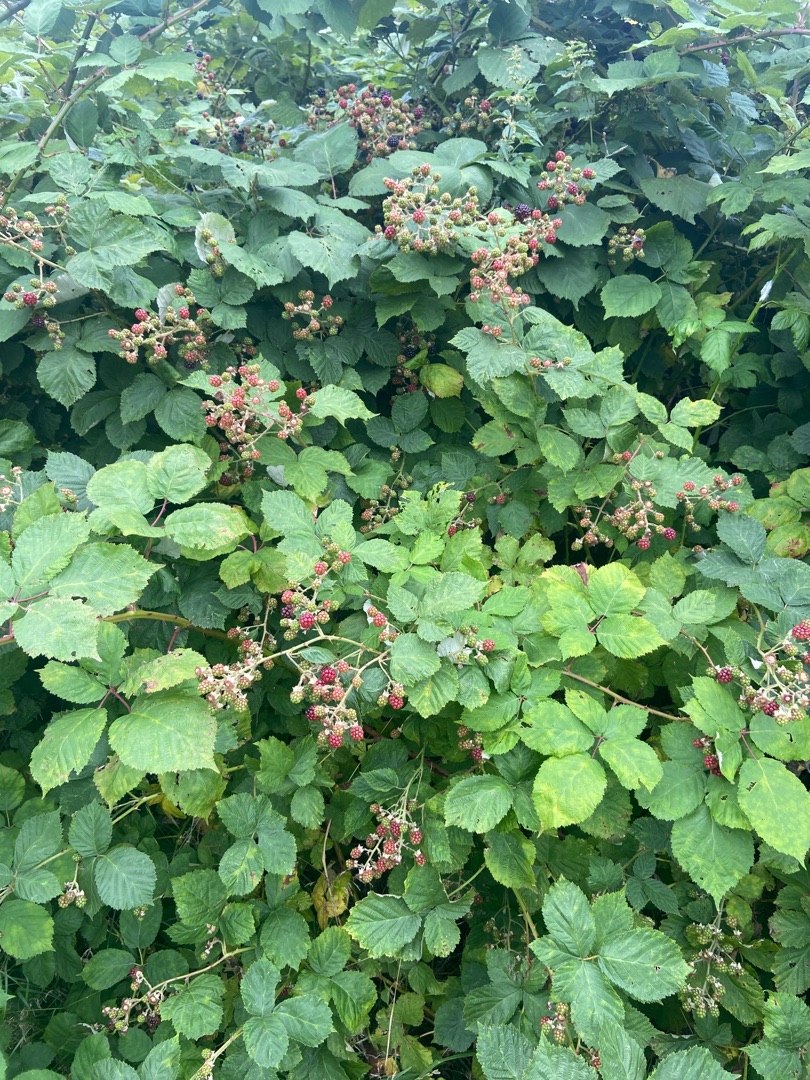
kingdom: Plantae
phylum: Tracheophyta
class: Magnoliopsida
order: Rosales
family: Rosaceae
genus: Rubus
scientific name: Rubus armeniacus
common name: Armensk brombær
